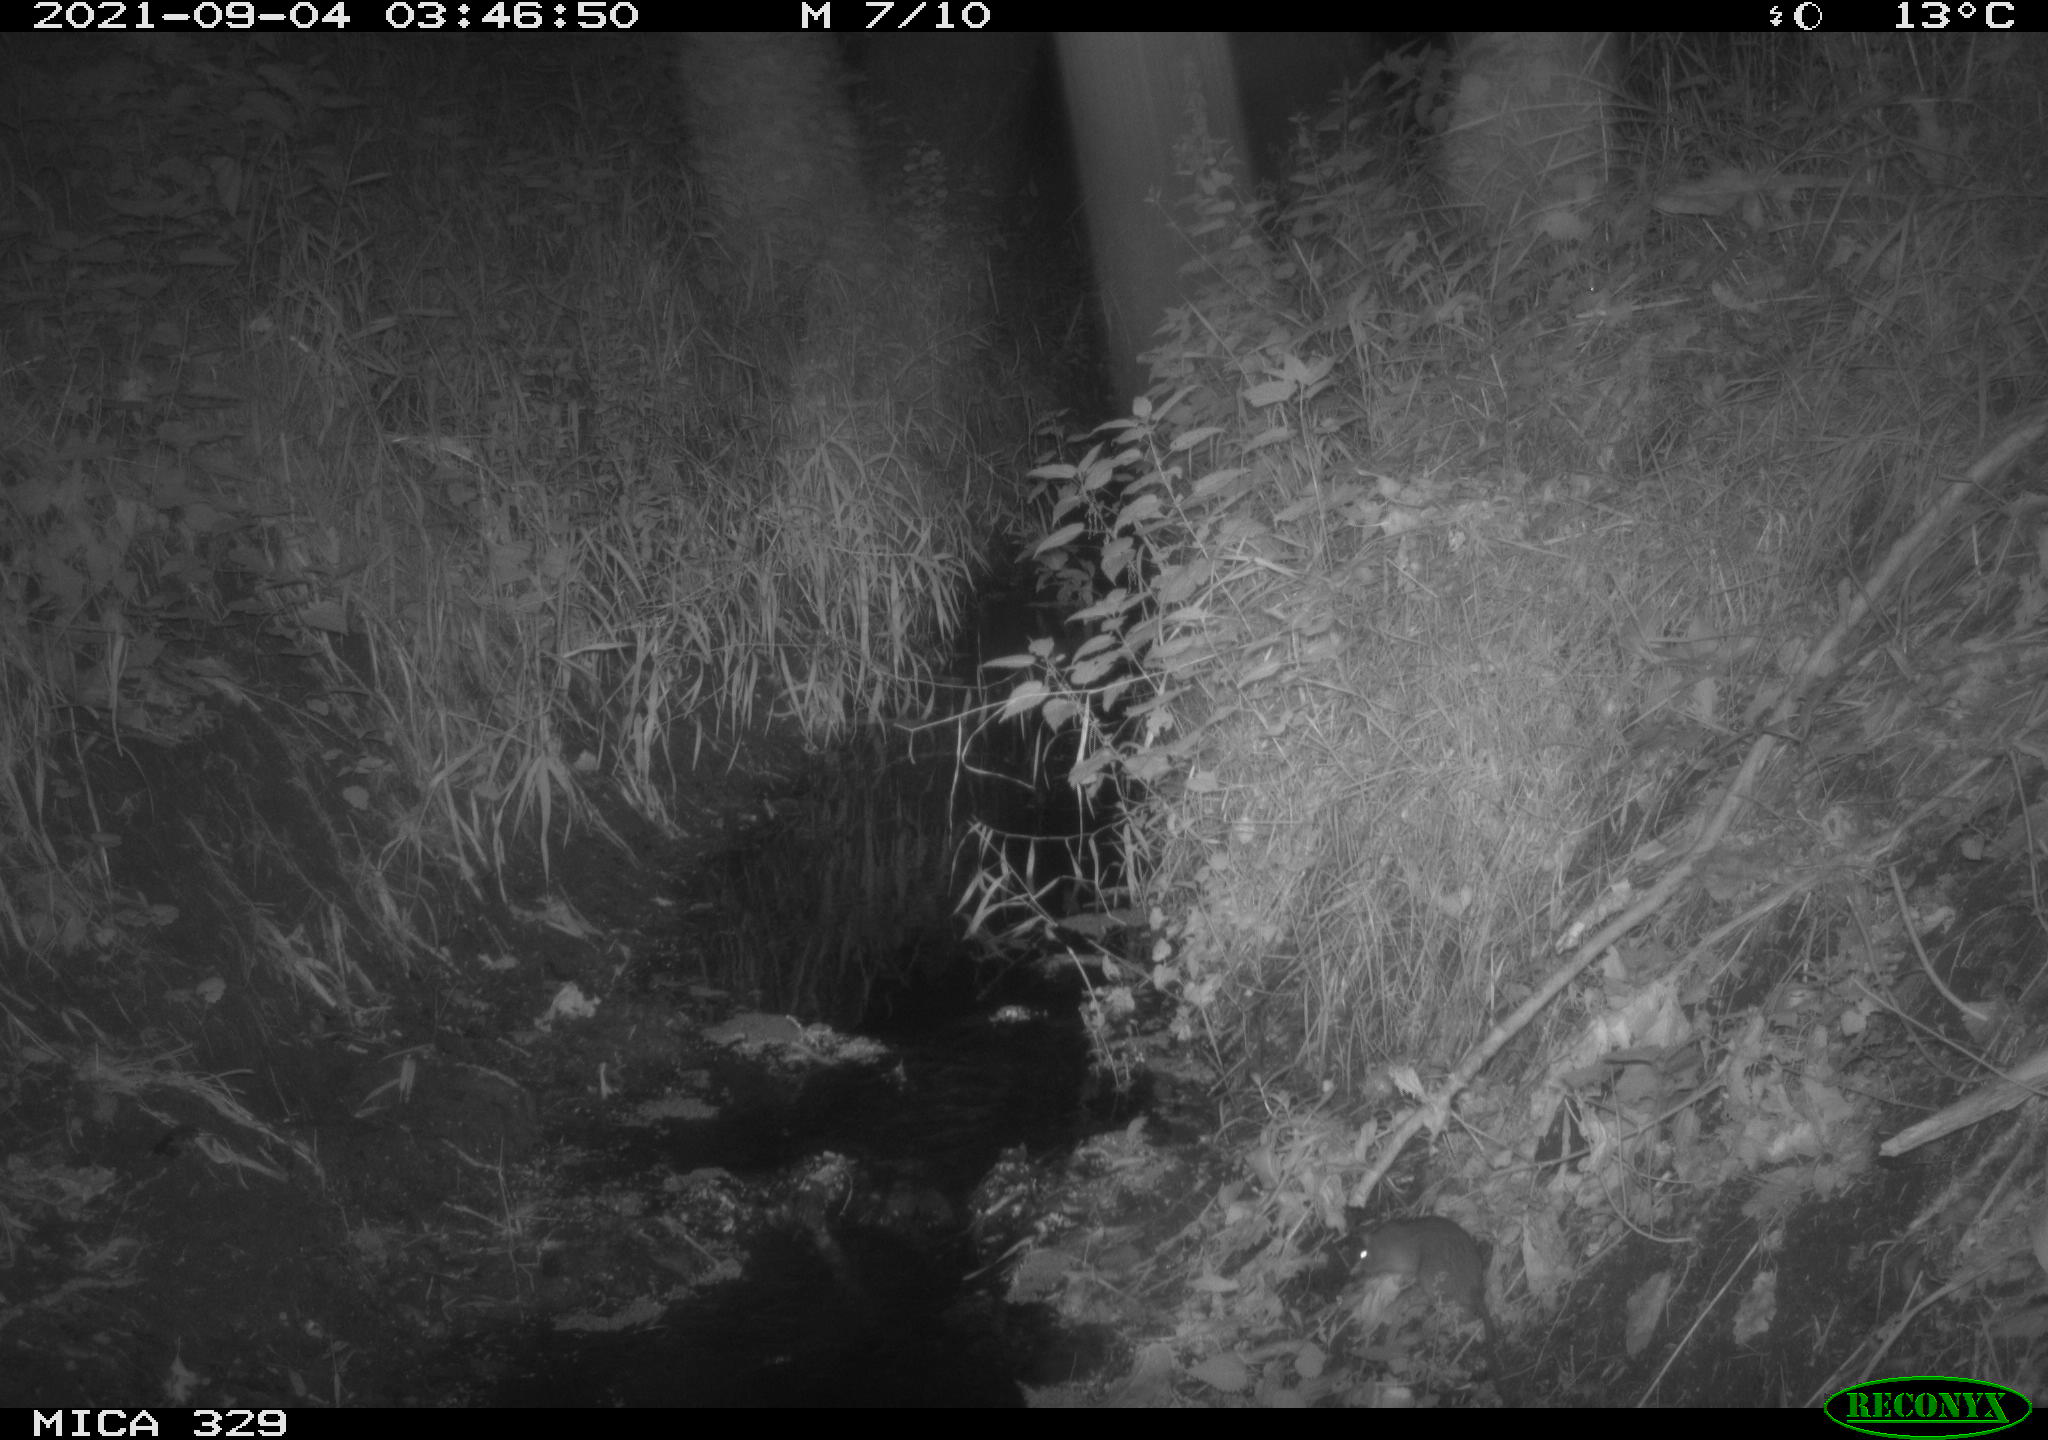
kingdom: Animalia
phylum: Chordata
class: Mammalia
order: Rodentia
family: Muridae
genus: Rattus
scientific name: Rattus norvegicus
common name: Brown rat
